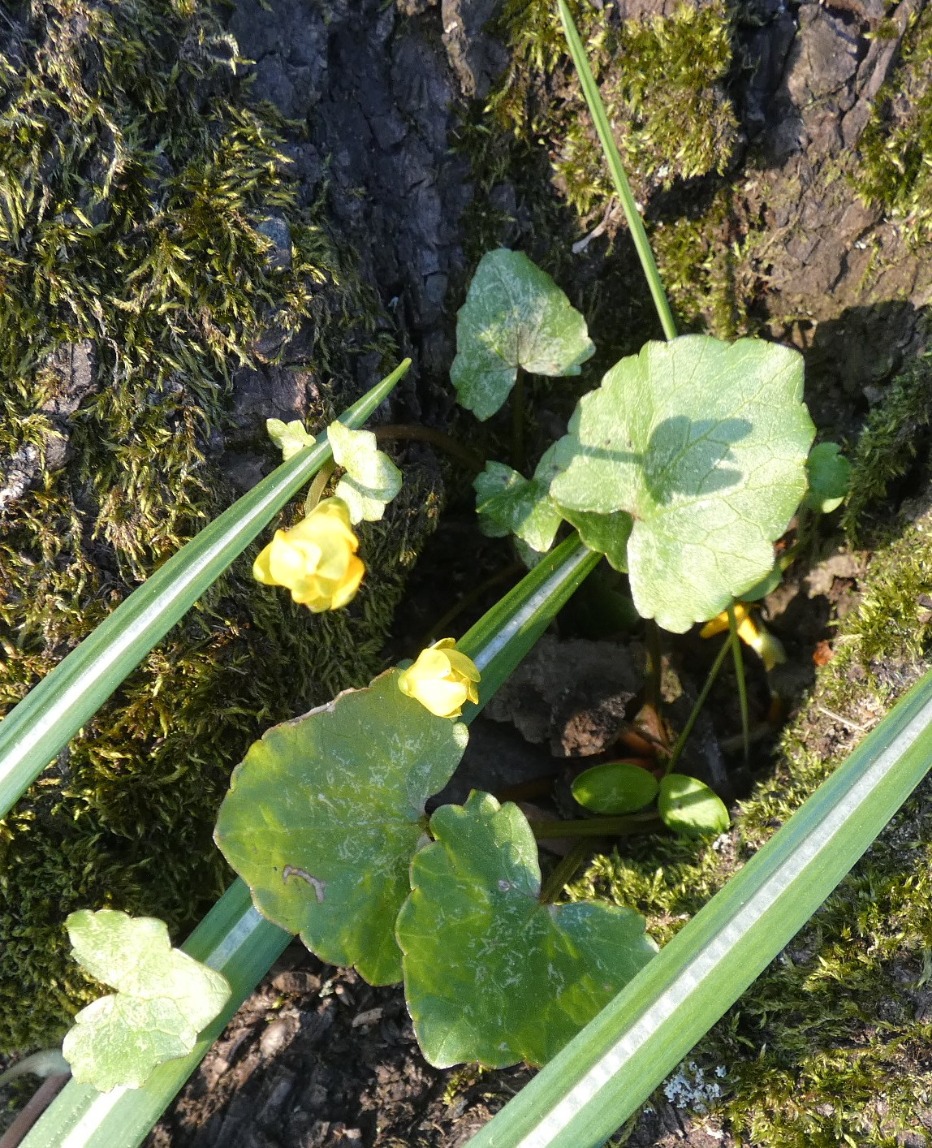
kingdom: Plantae
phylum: Tracheophyta
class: Magnoliopsida
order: Ranunculales
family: Ranunculaceae
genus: Ficaria
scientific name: Ficaria verna
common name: Vorterod
